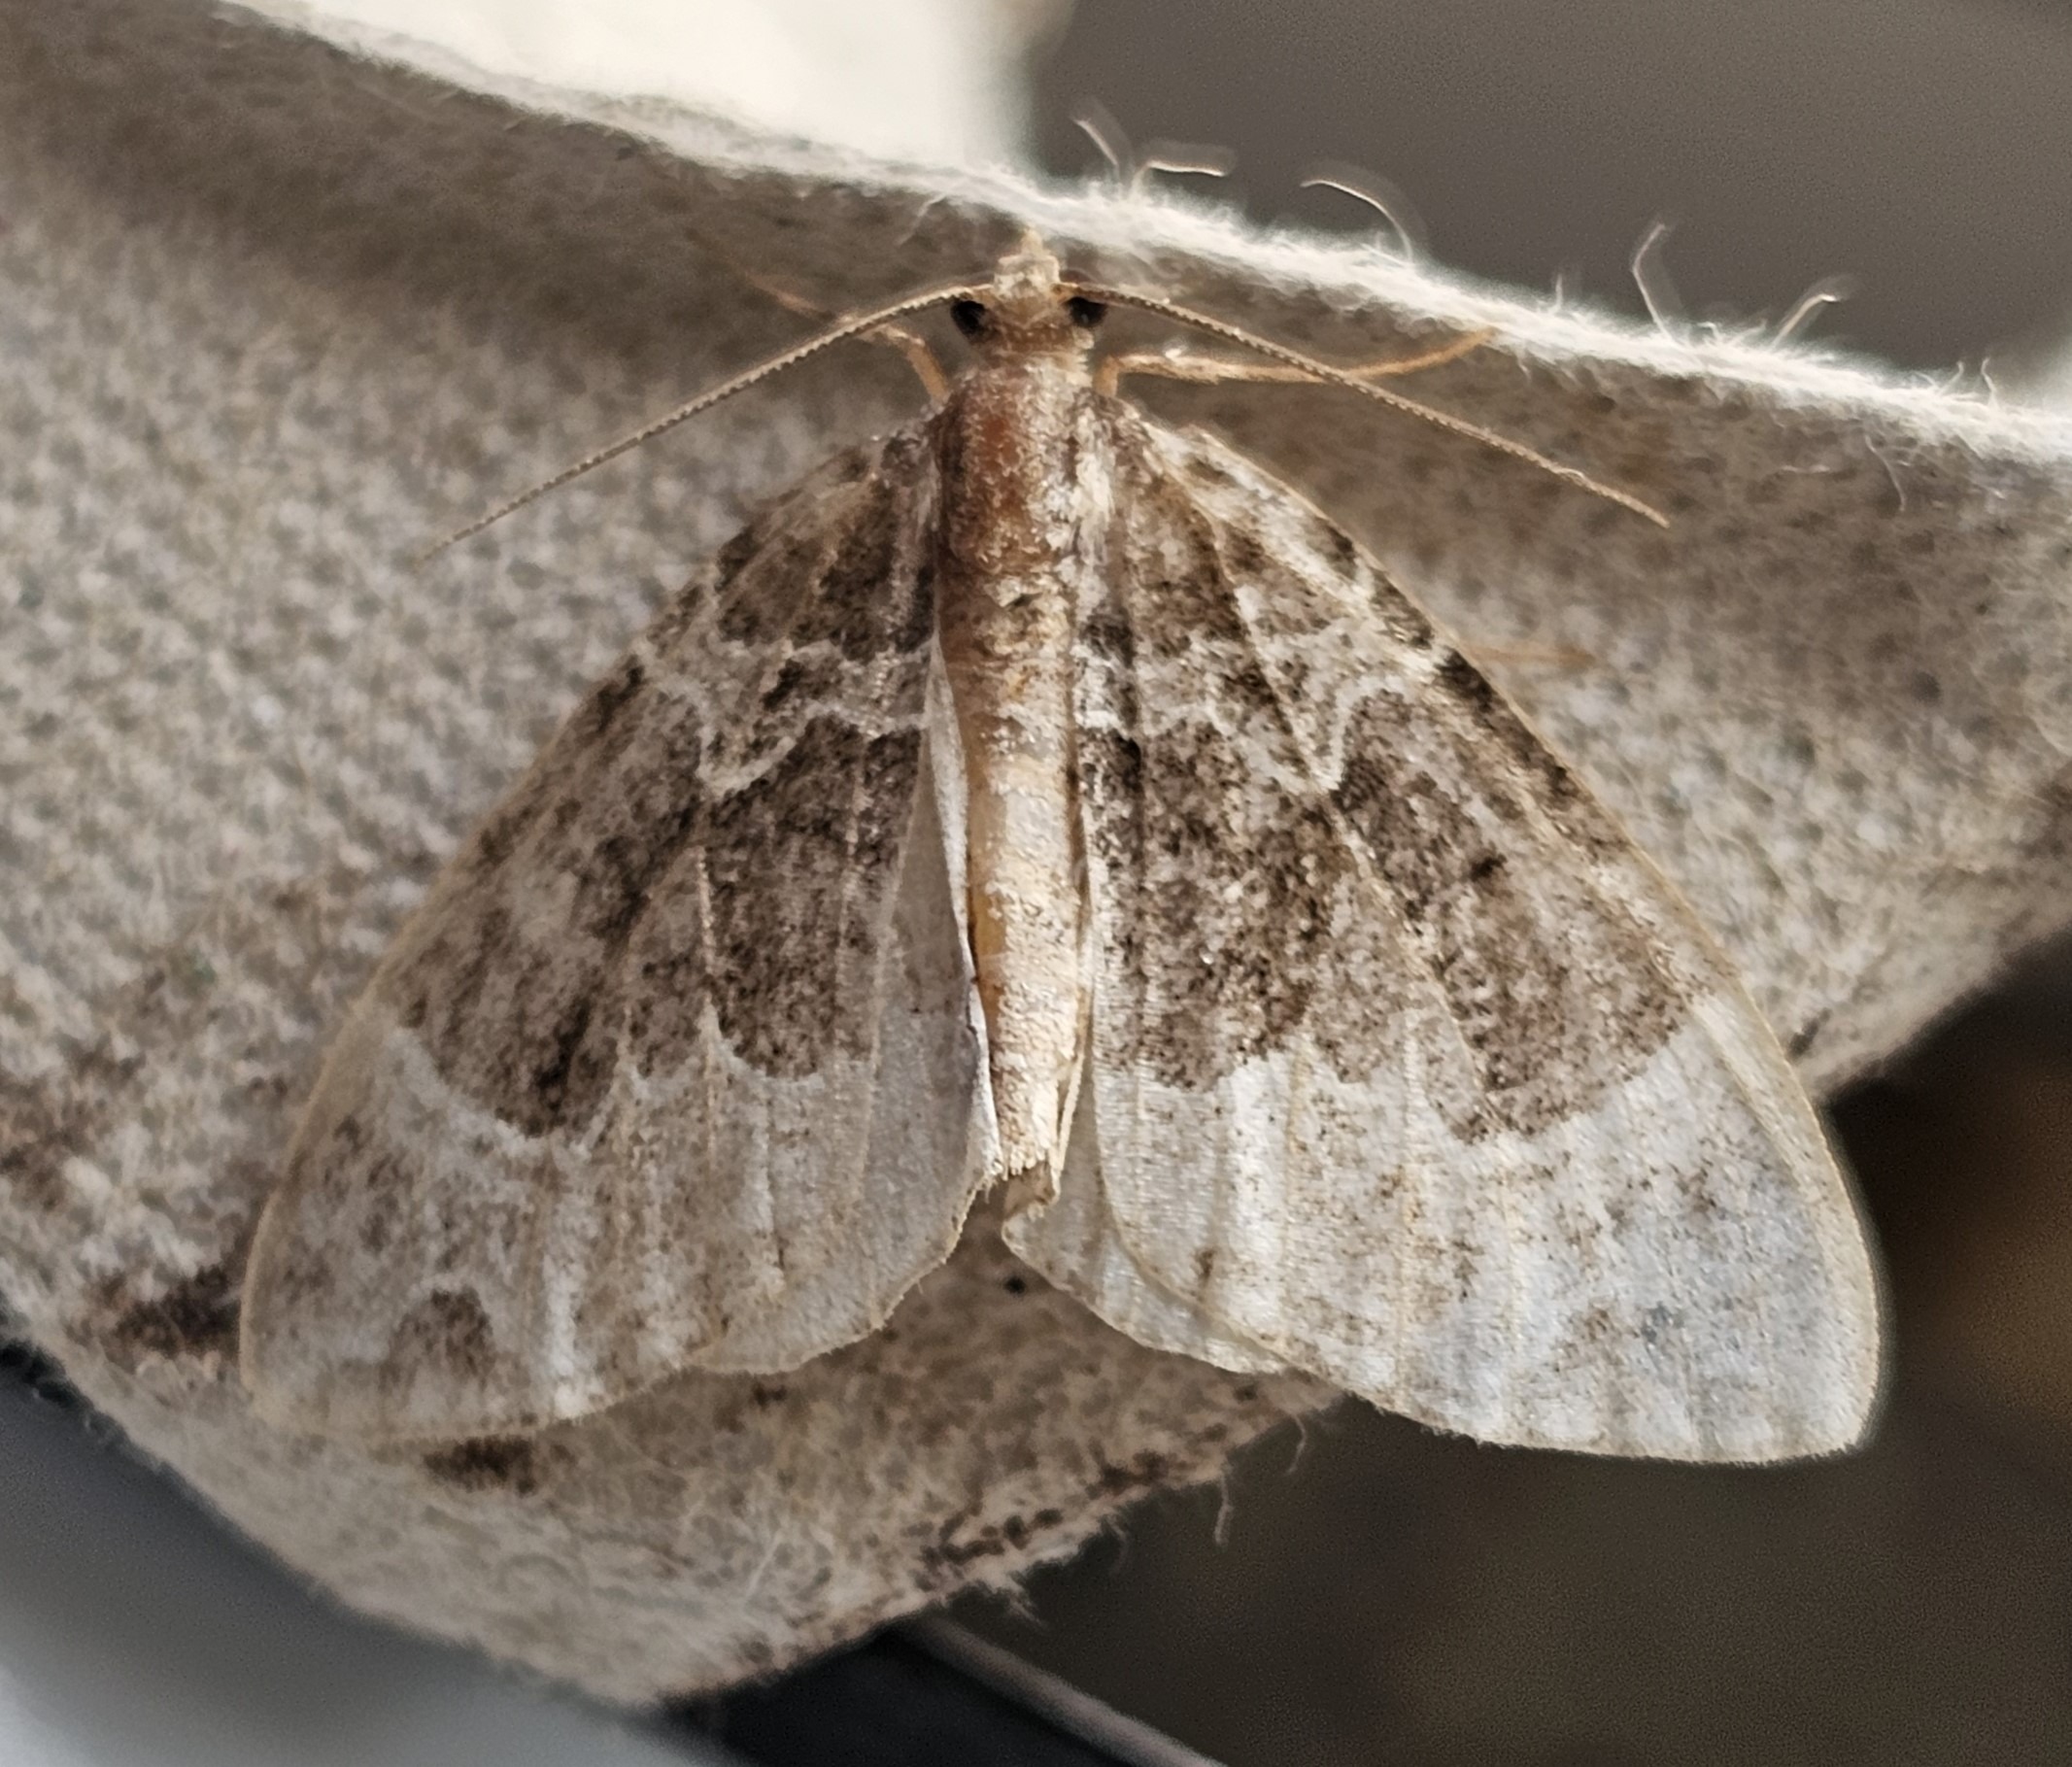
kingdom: Animalia
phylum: Arthropoda
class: Insecta
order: Lepidoptera
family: Geometridae
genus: Ecliptopera
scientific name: Ecliptopera silaceata
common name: Dueurt-bladmåler
